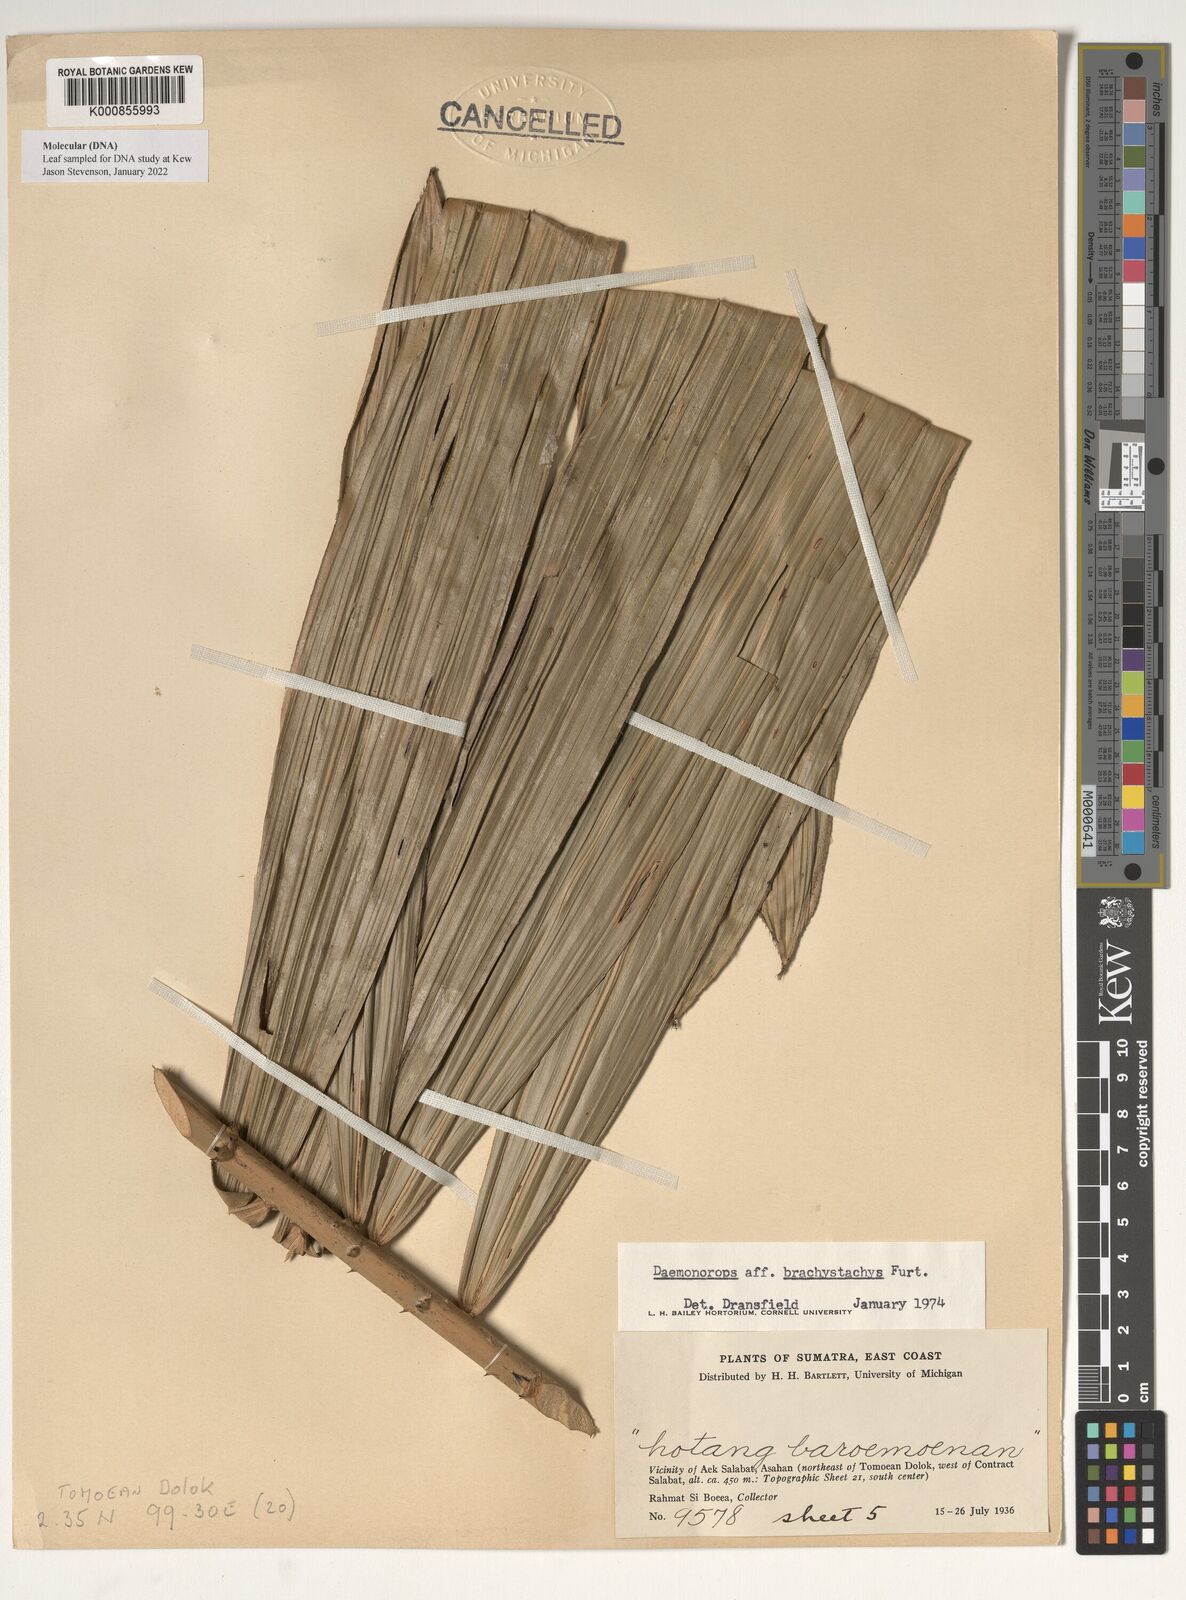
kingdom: Plantae
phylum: Tracheophyta
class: Liliopsida
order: Arecales
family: Arecaceae
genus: Calamus
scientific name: Calamus
